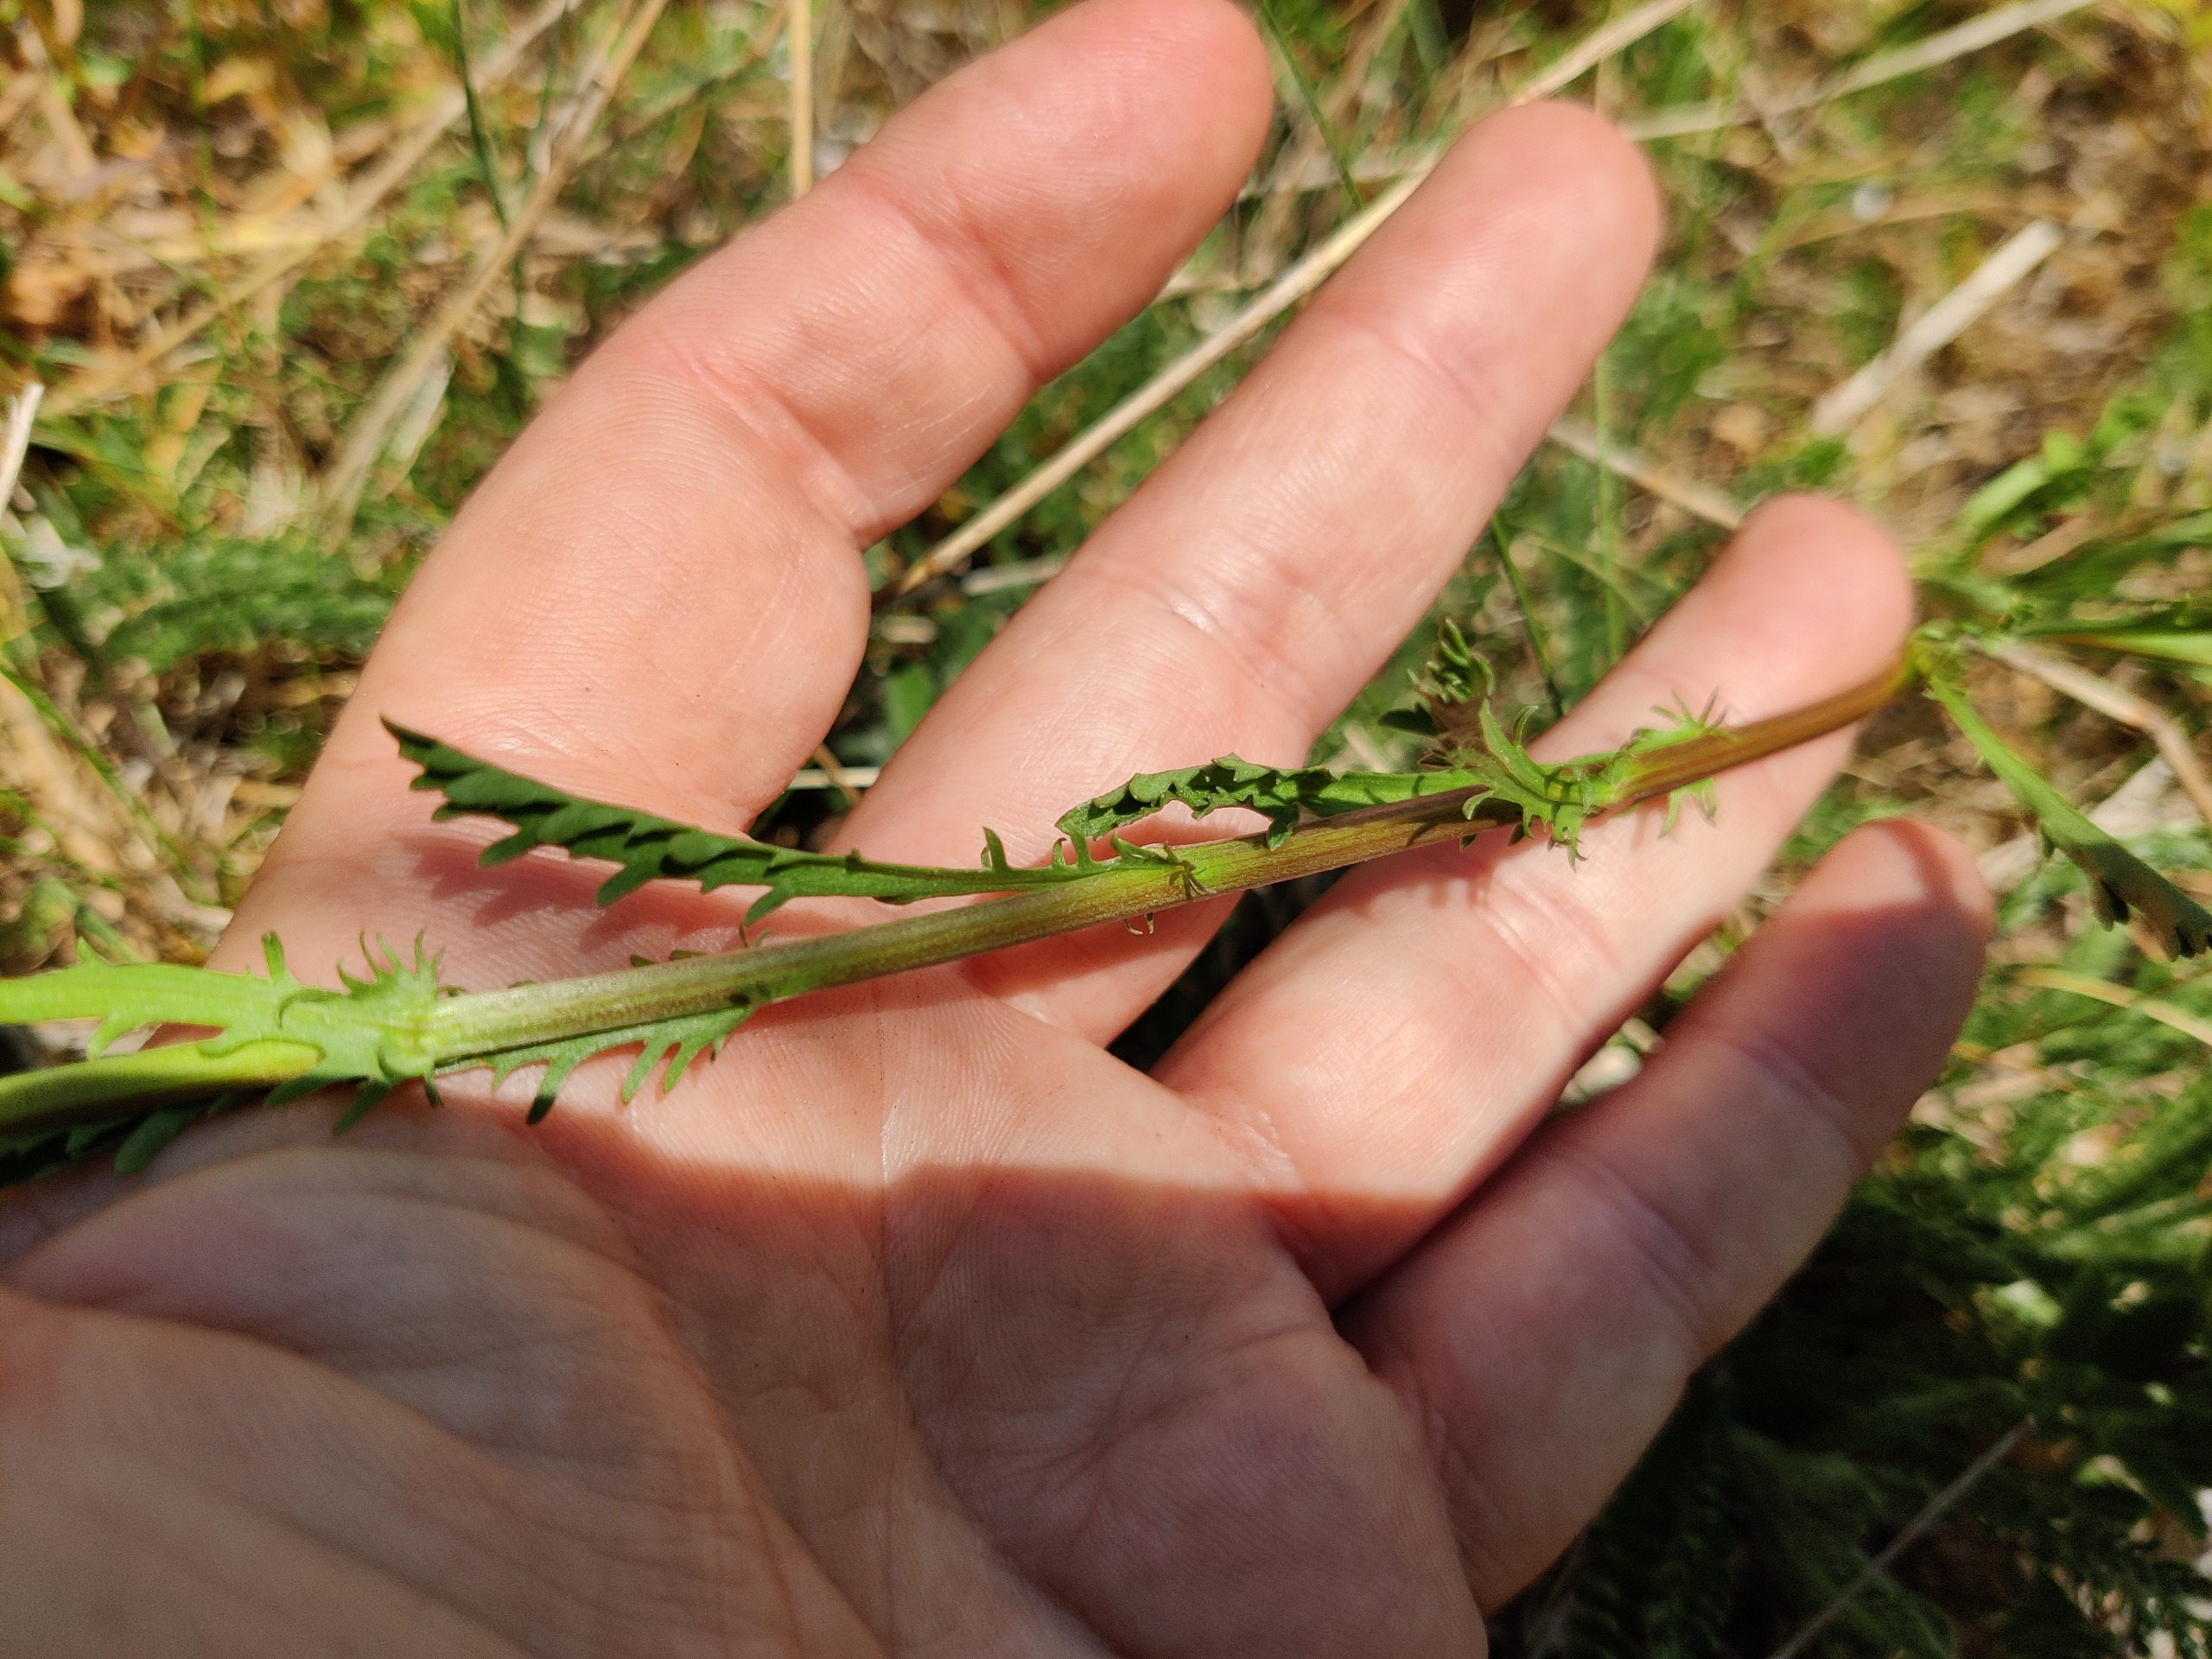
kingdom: Plantae
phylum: Tracheophyta
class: Magnoliopsida
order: Asterales
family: Asteraceae
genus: Leucanthemum
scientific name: Leucanthemum vulgare
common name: Hvid okseøje
